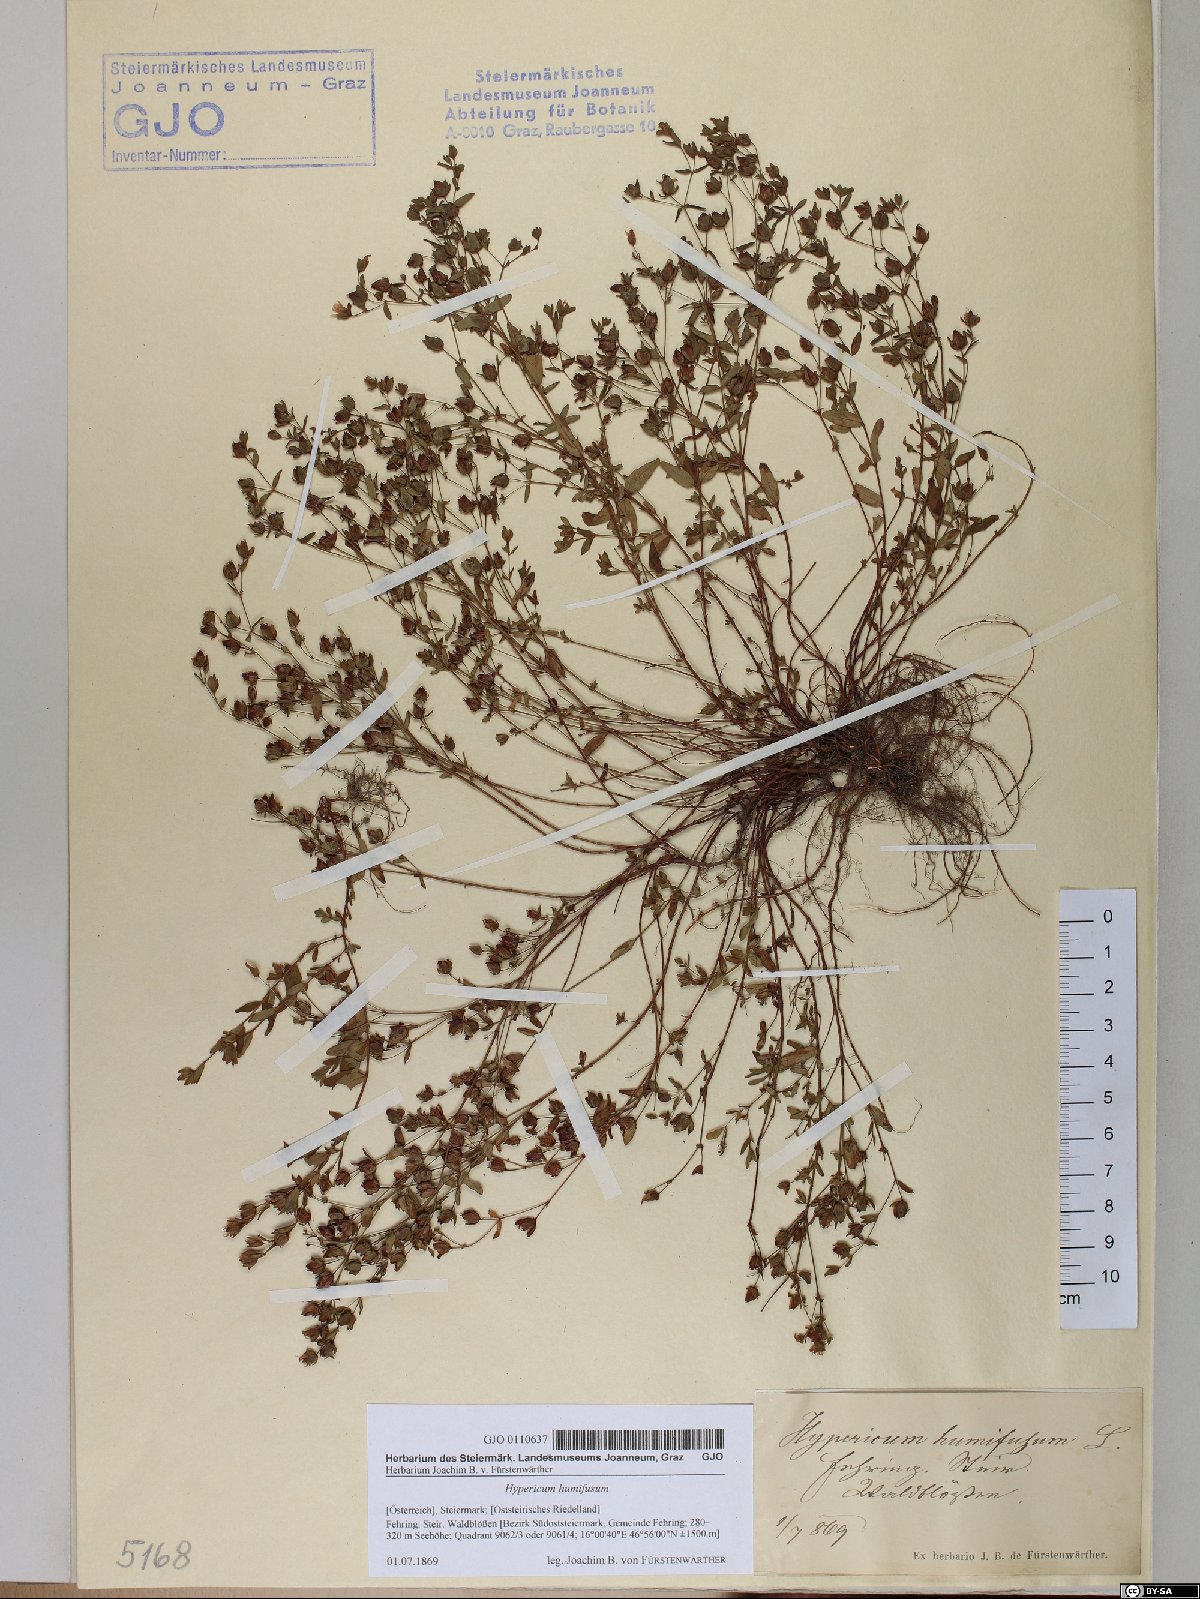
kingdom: Plantae
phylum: Tracheophyta
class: Magnoliopsida
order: Malpighiales
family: Hypericaceae
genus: Hypericum
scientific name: Hypericum humifusum
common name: Trailing st. john's-wort
